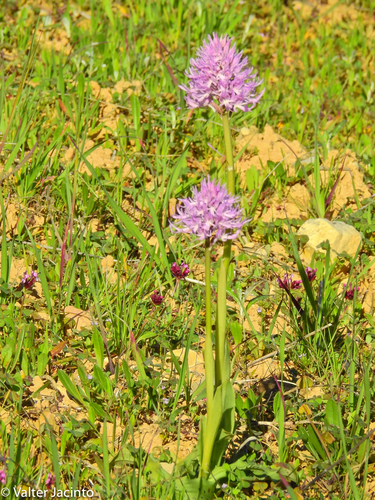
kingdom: Plantae
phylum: Tracheophyta
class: Liliopsida
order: Asparagales
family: Orchidaceae
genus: Orchis
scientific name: Orchis italica
